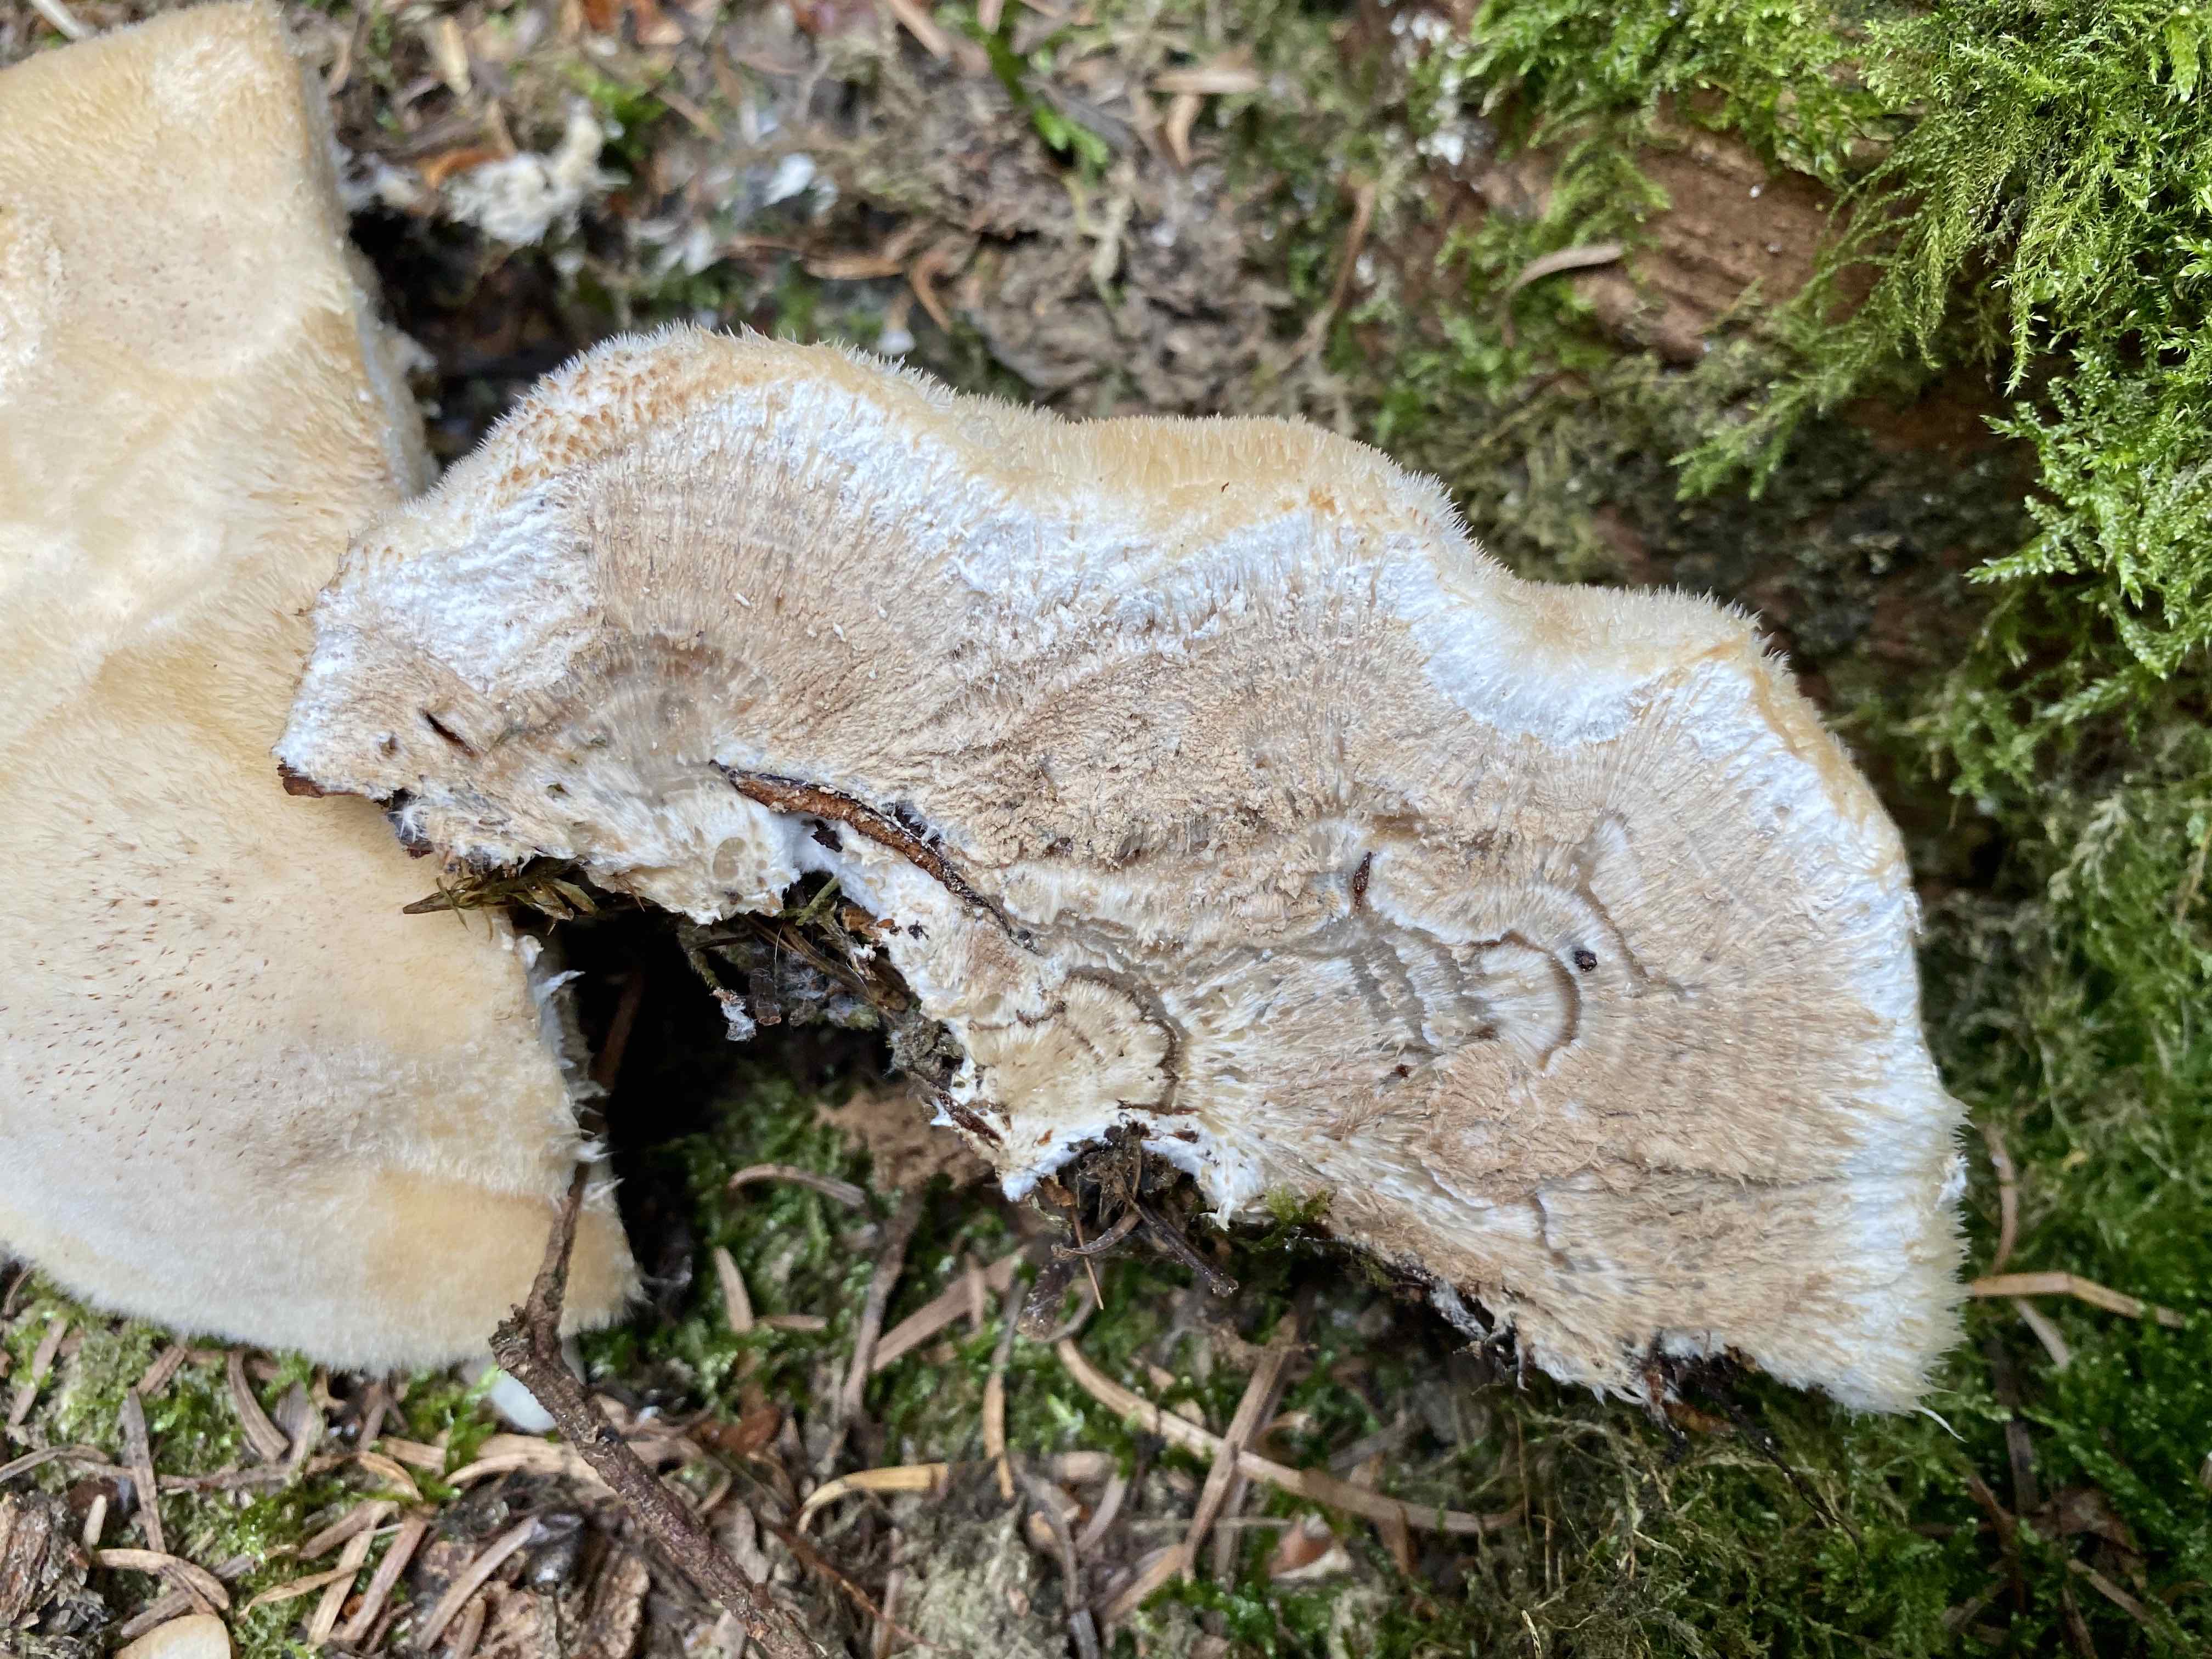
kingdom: Fungi
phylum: Basidiomycota
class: Agaricomycetes
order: Polyporales
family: Dacryobolaceae
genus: Postia
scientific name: Postia ptychogaster
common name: støvende kødporesvamp
